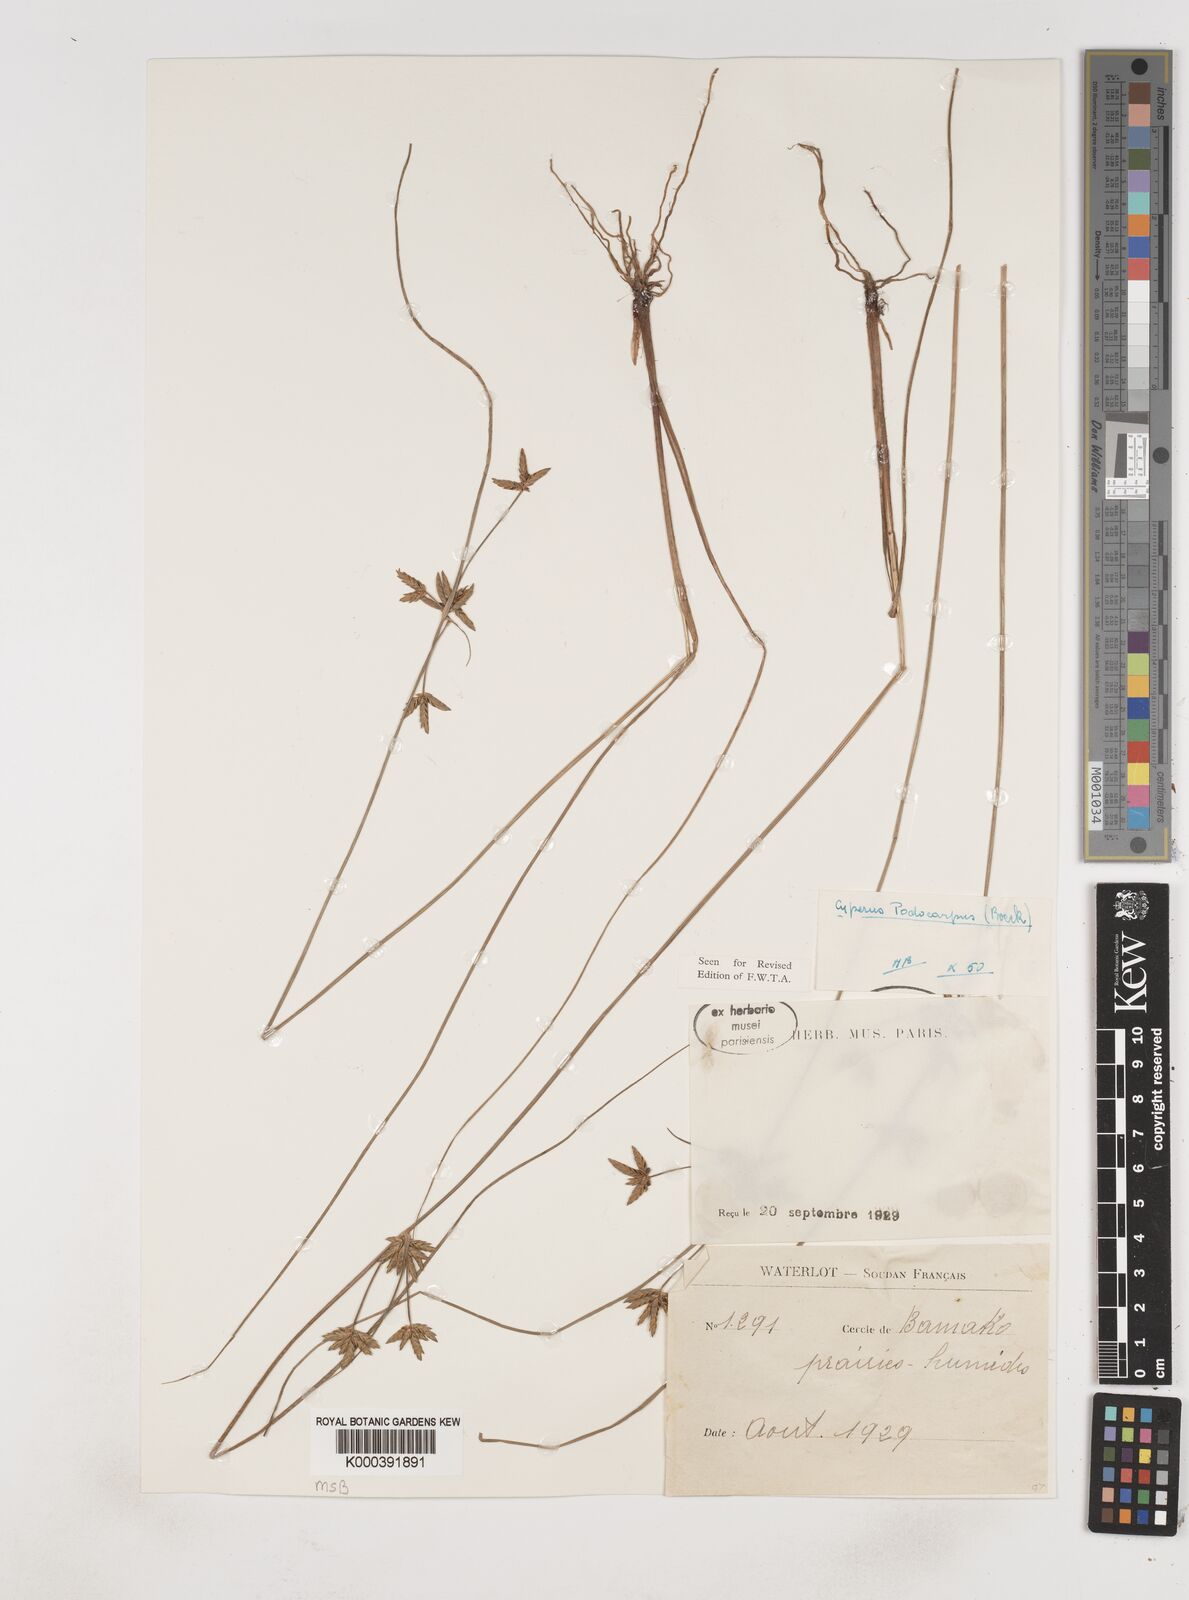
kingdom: Plantae
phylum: Tracheophyta
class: Liliopsida
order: Poales
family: Cyperaceae
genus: Cyperus
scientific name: Cyperus podocarpus
